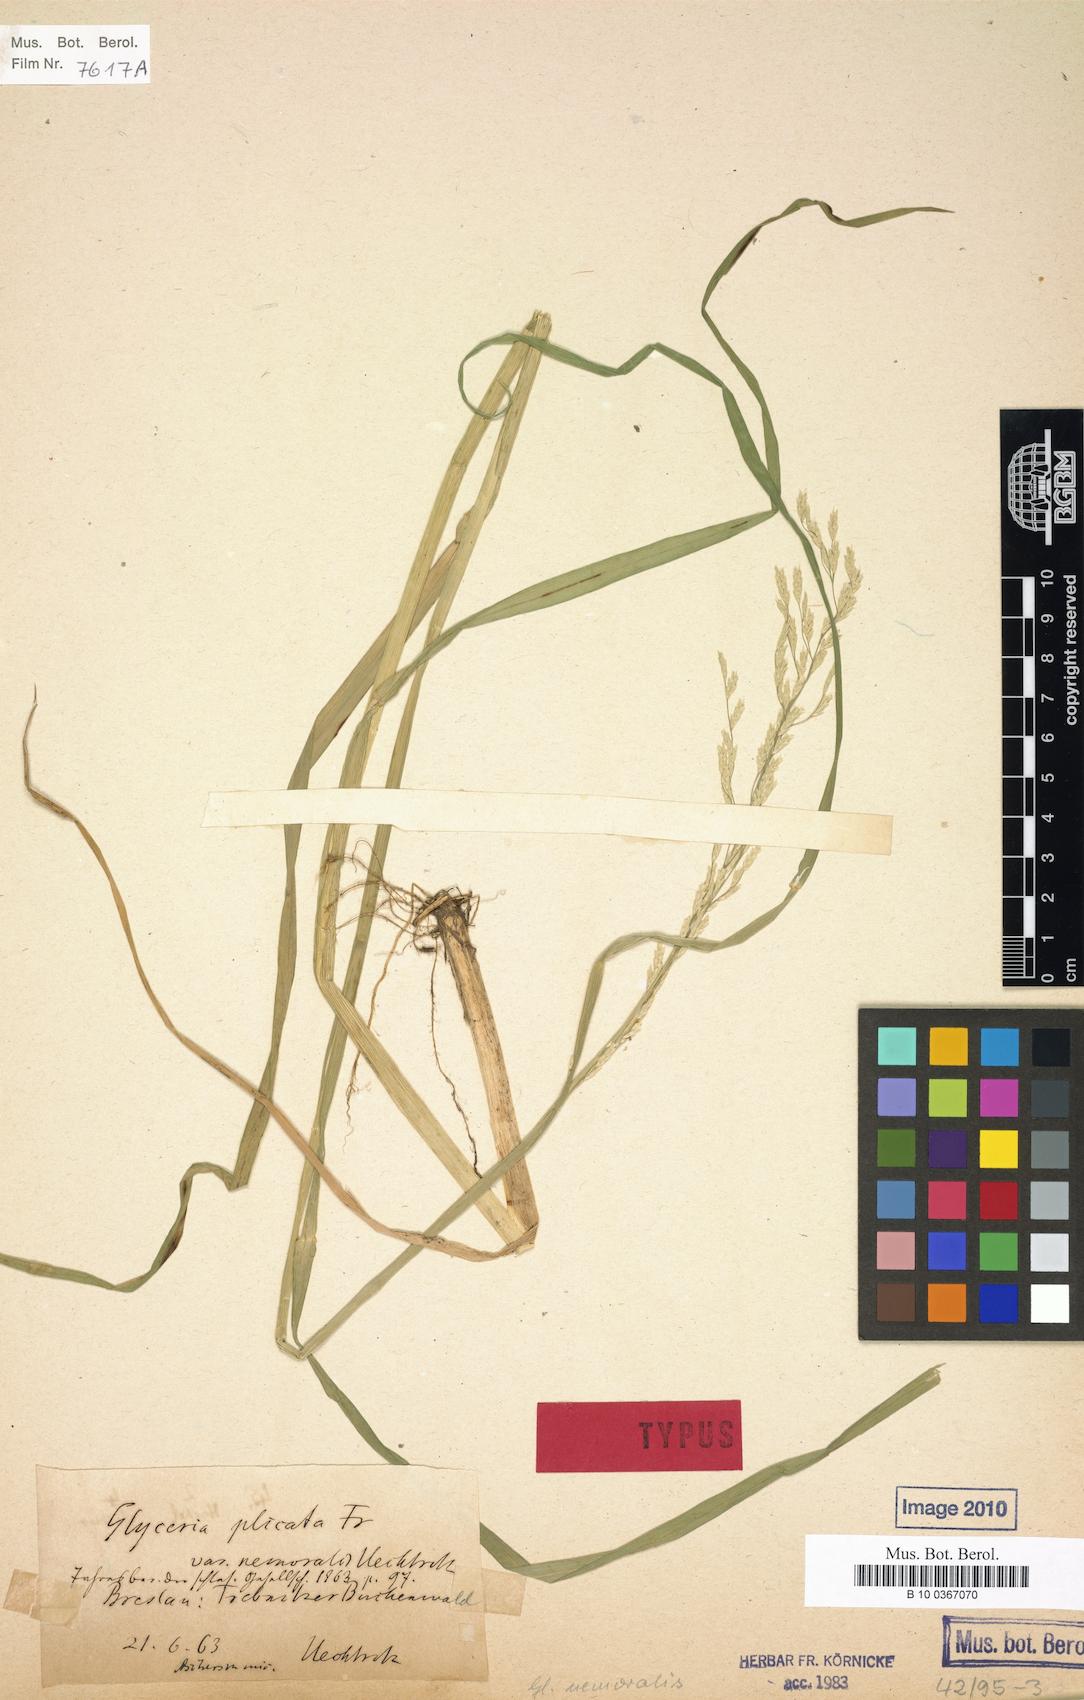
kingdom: Plantae
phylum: Tracheophyta
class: Liliopsida
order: Poales
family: Poaceae
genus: Glyceria
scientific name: Glyceria nemoralis
